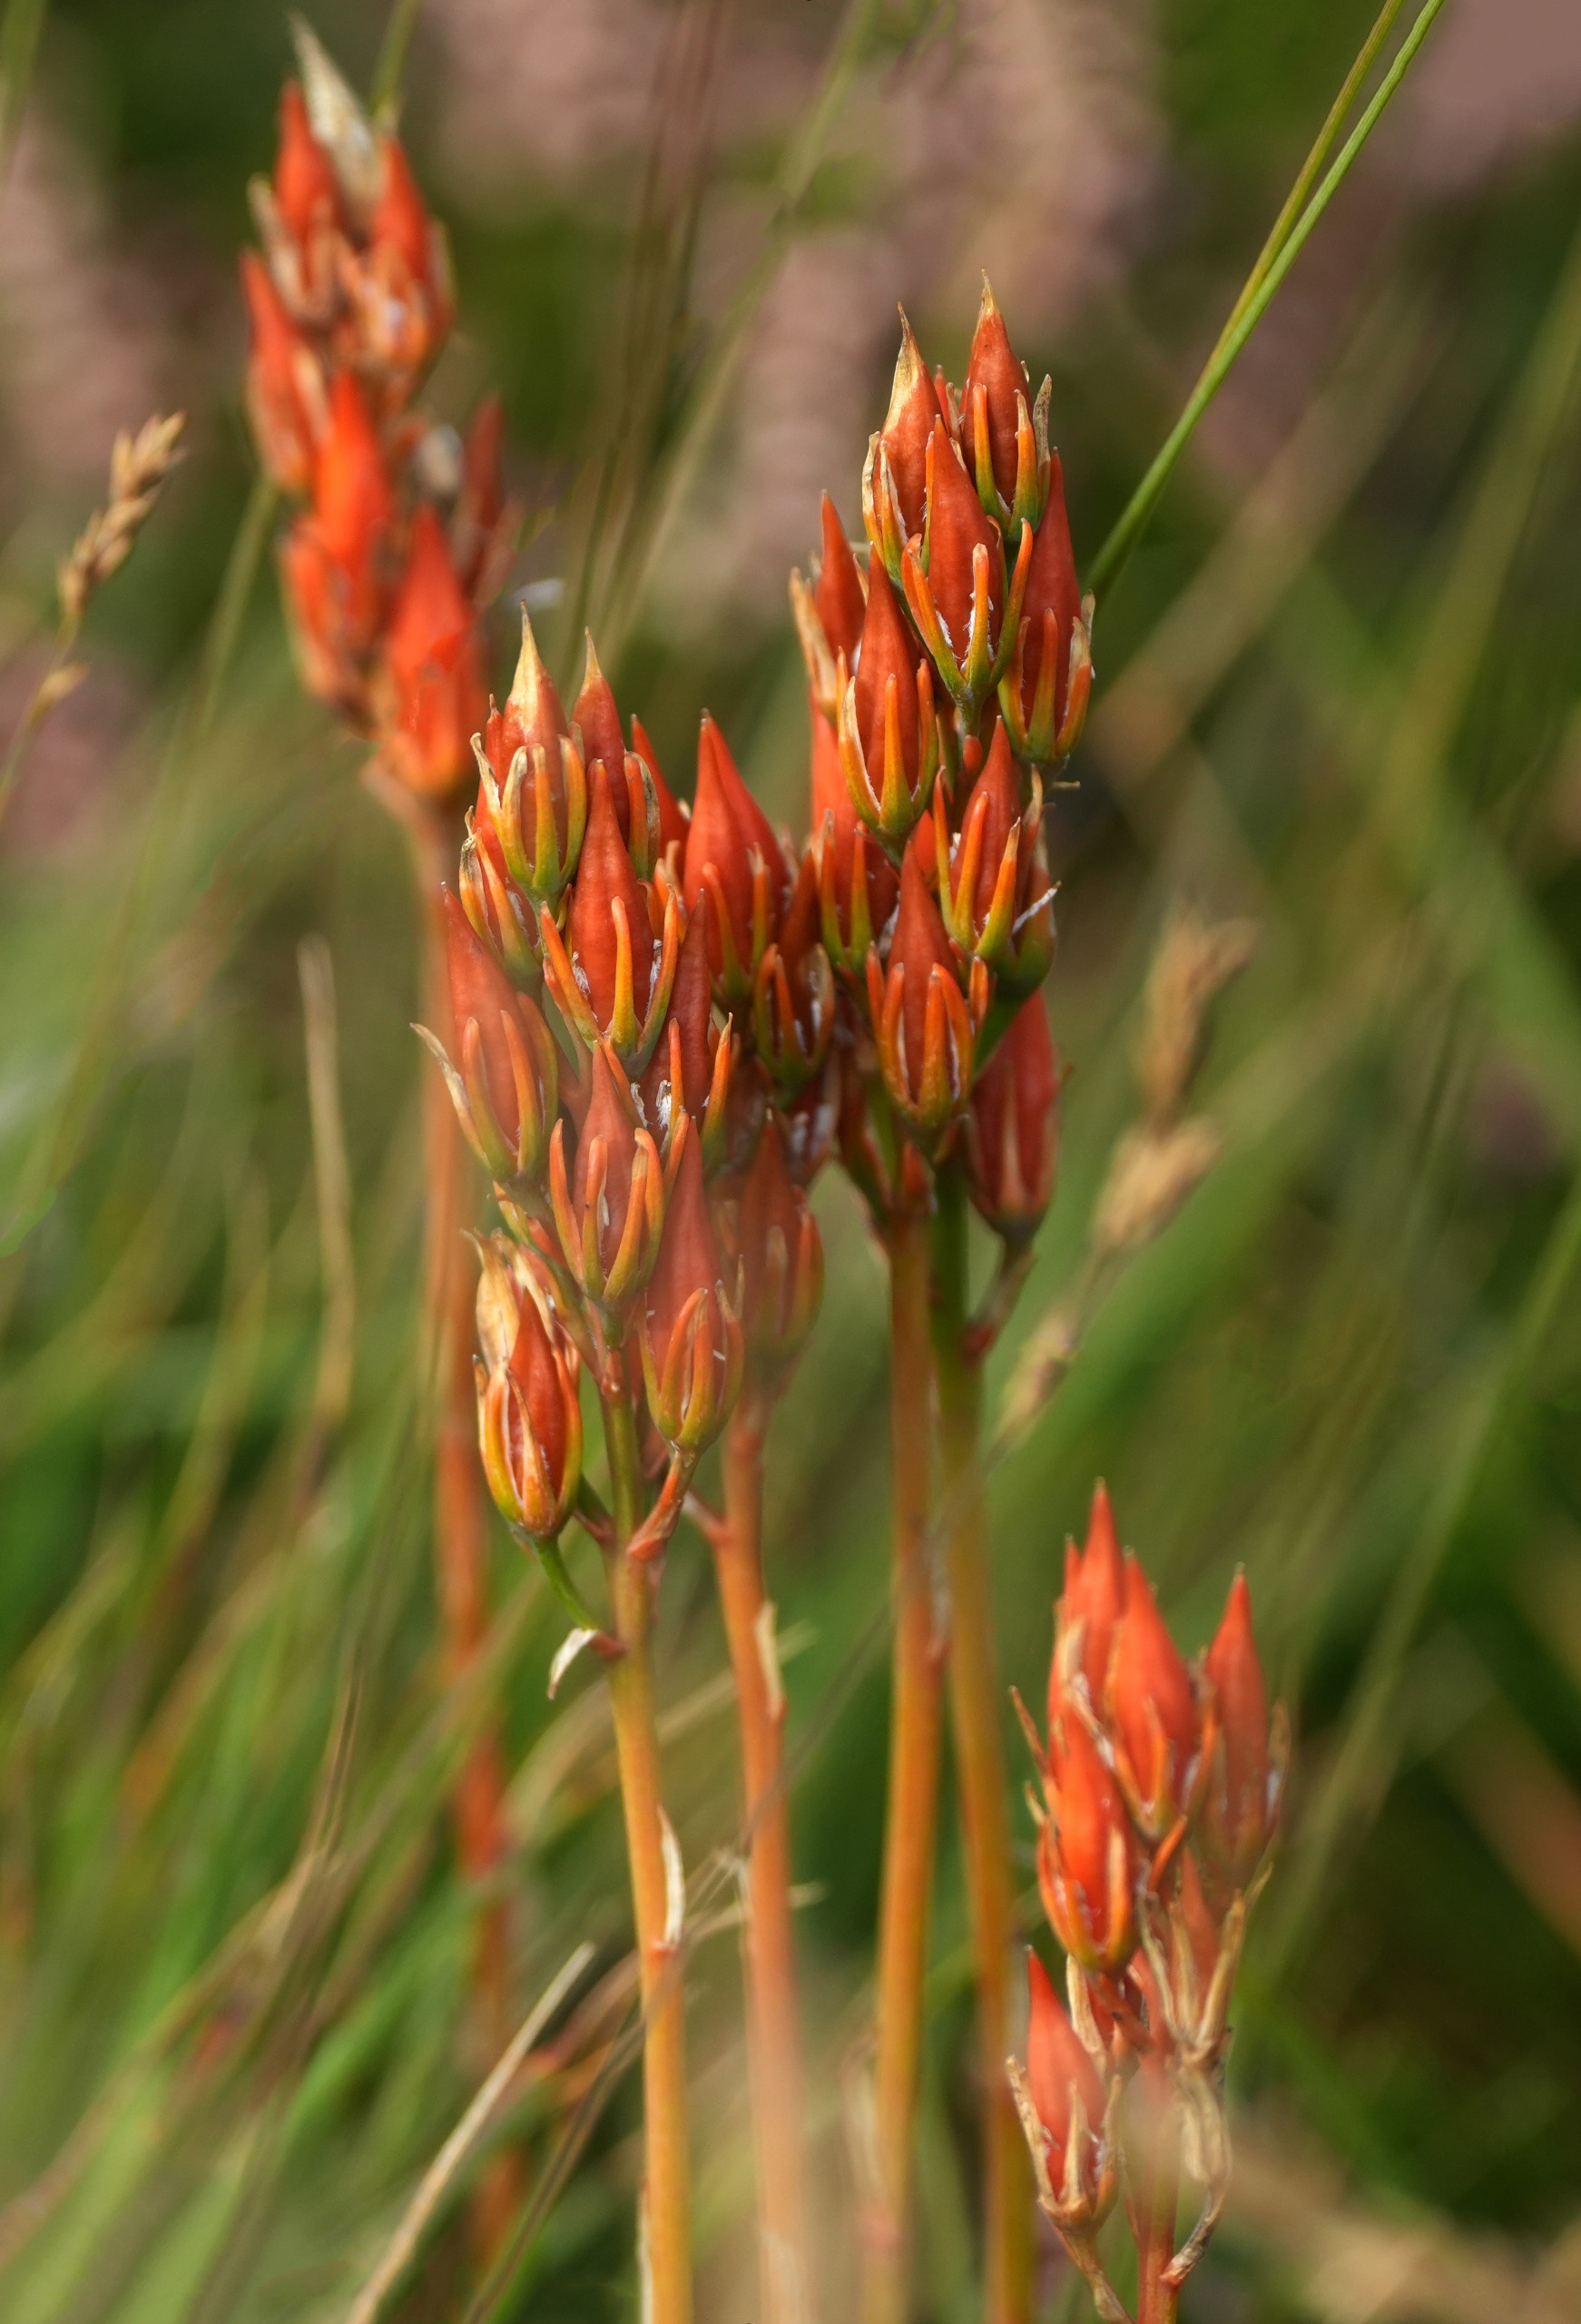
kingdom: Plantae
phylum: Tracheophyta
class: Liliopsida
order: Dioscoreales
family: Nartheciaceae
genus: Narthecium
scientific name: Narthecium ossifragum
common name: Benbræk
